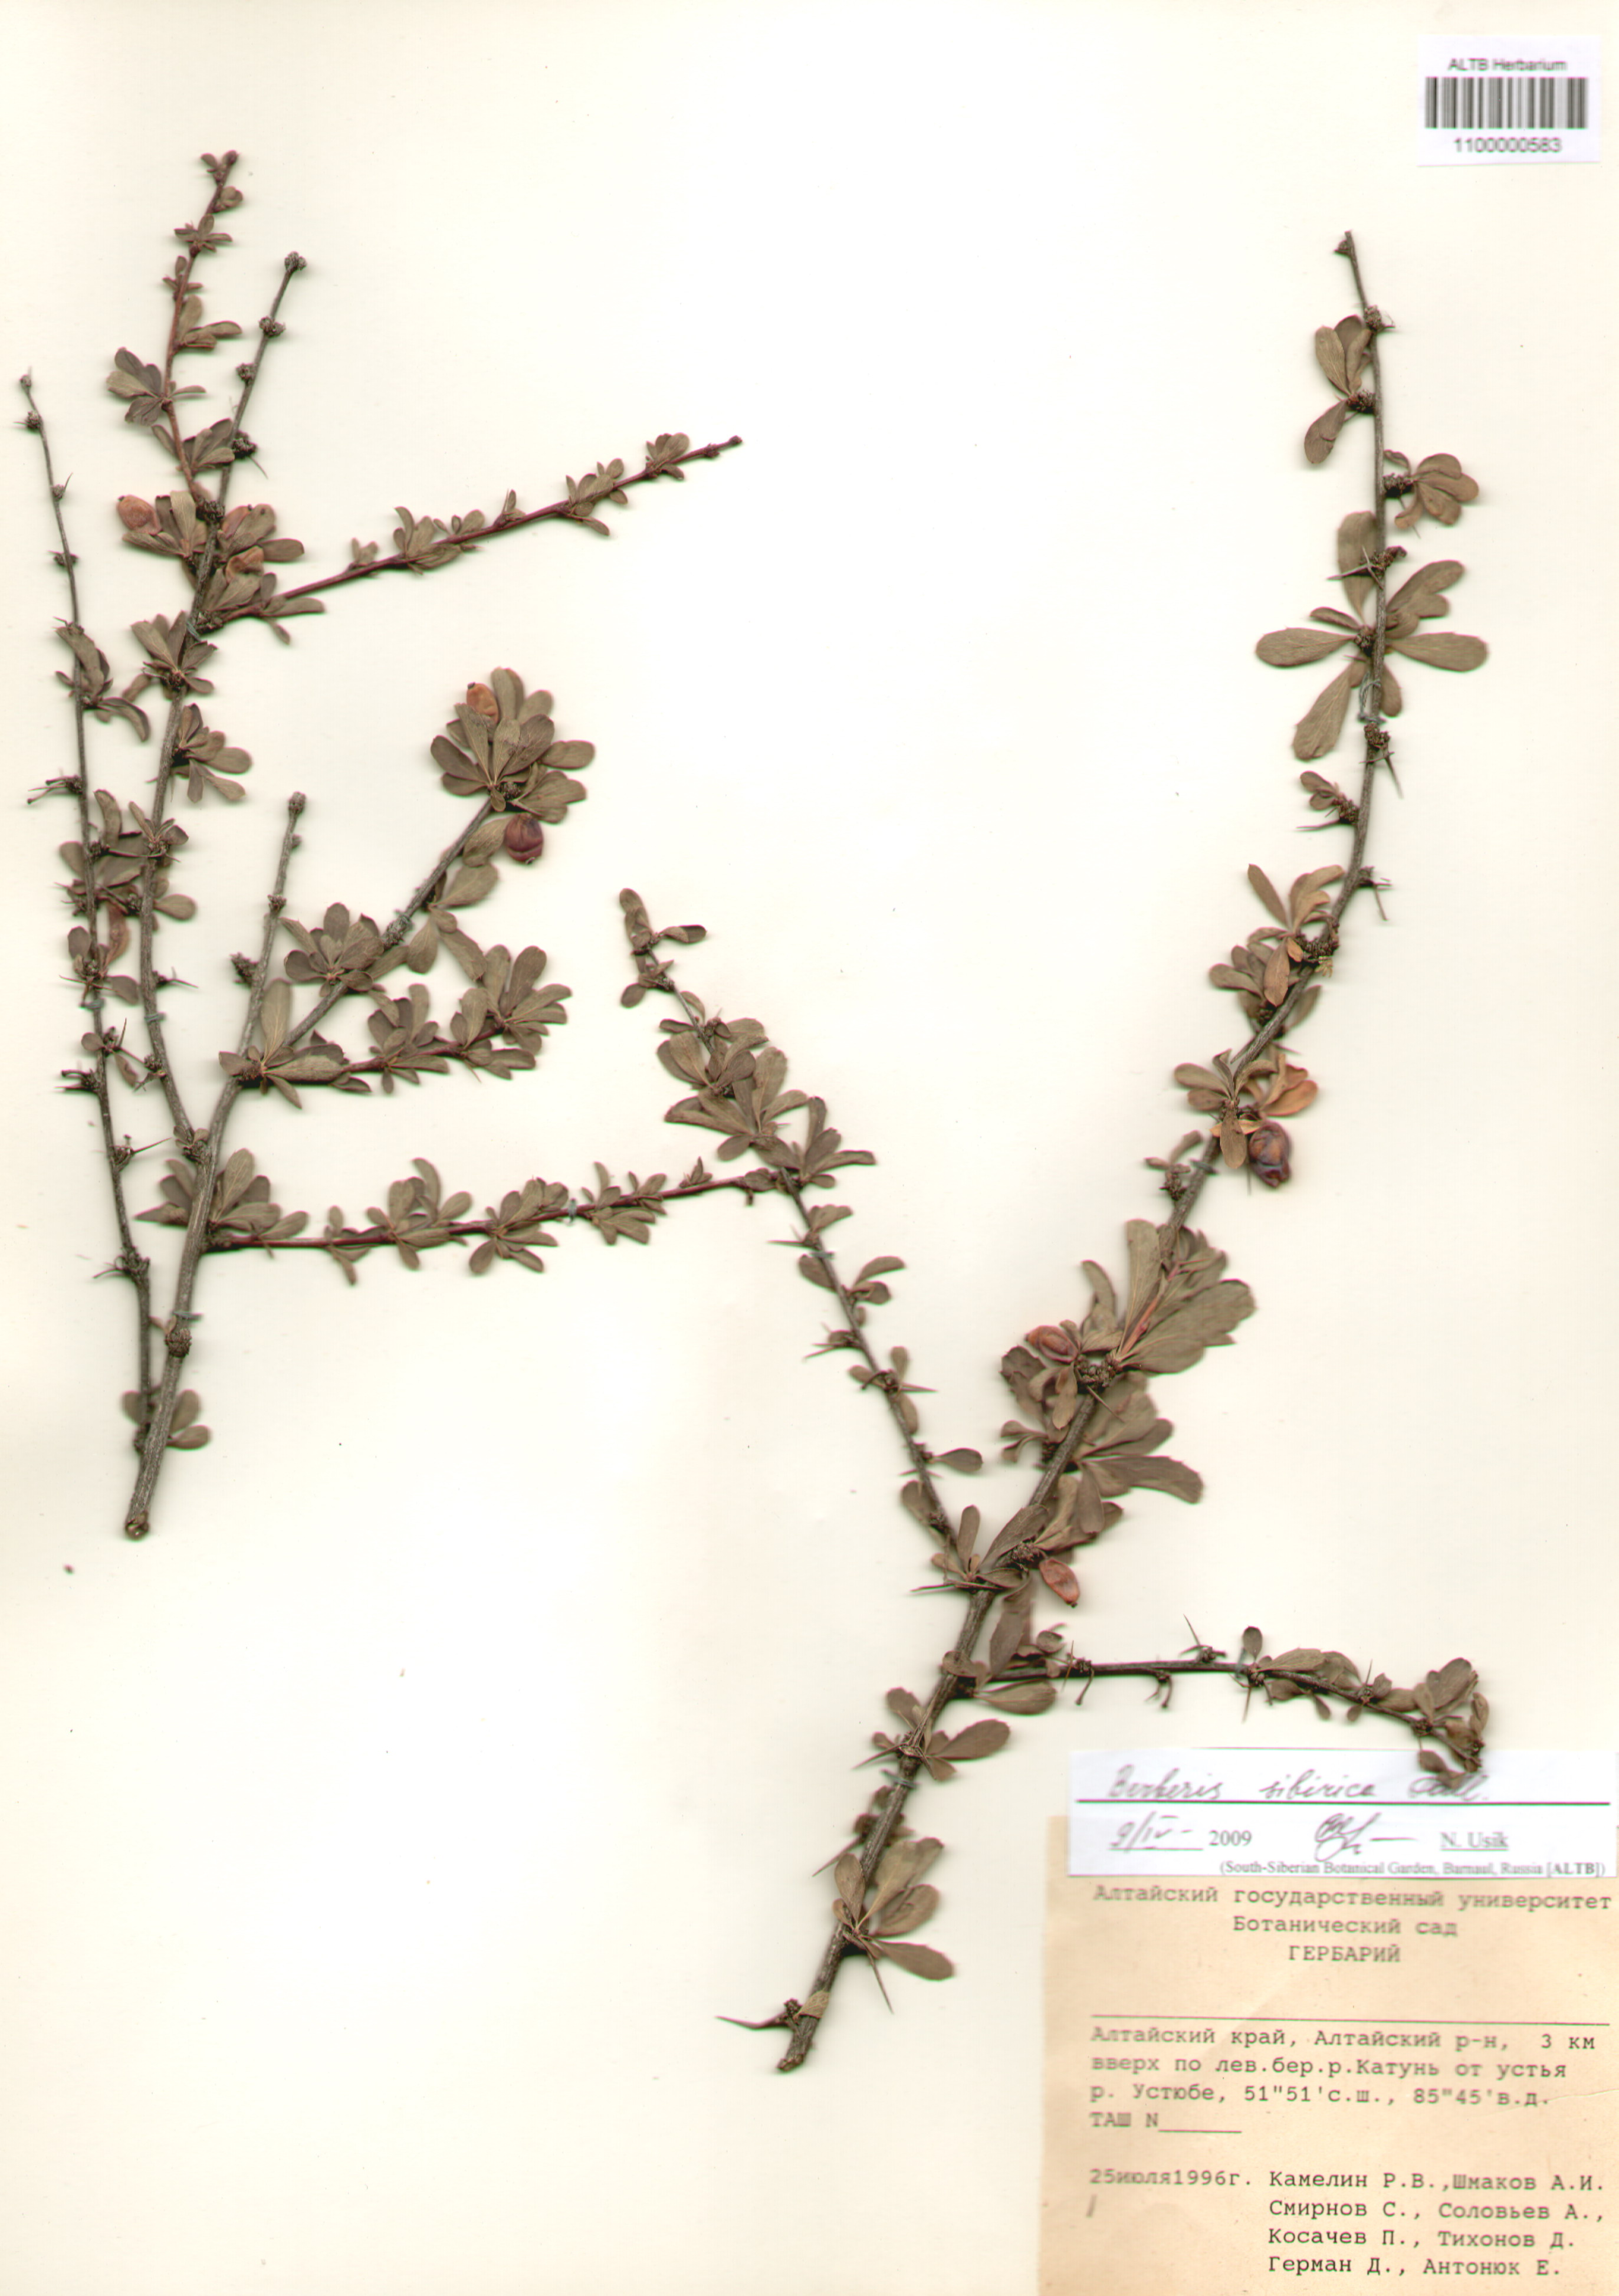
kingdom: Plantae
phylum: Tracheophyta
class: Magnoliopsida
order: Ranunculales
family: Berberidaceae
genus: Berberis
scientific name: Berberis sibirica
